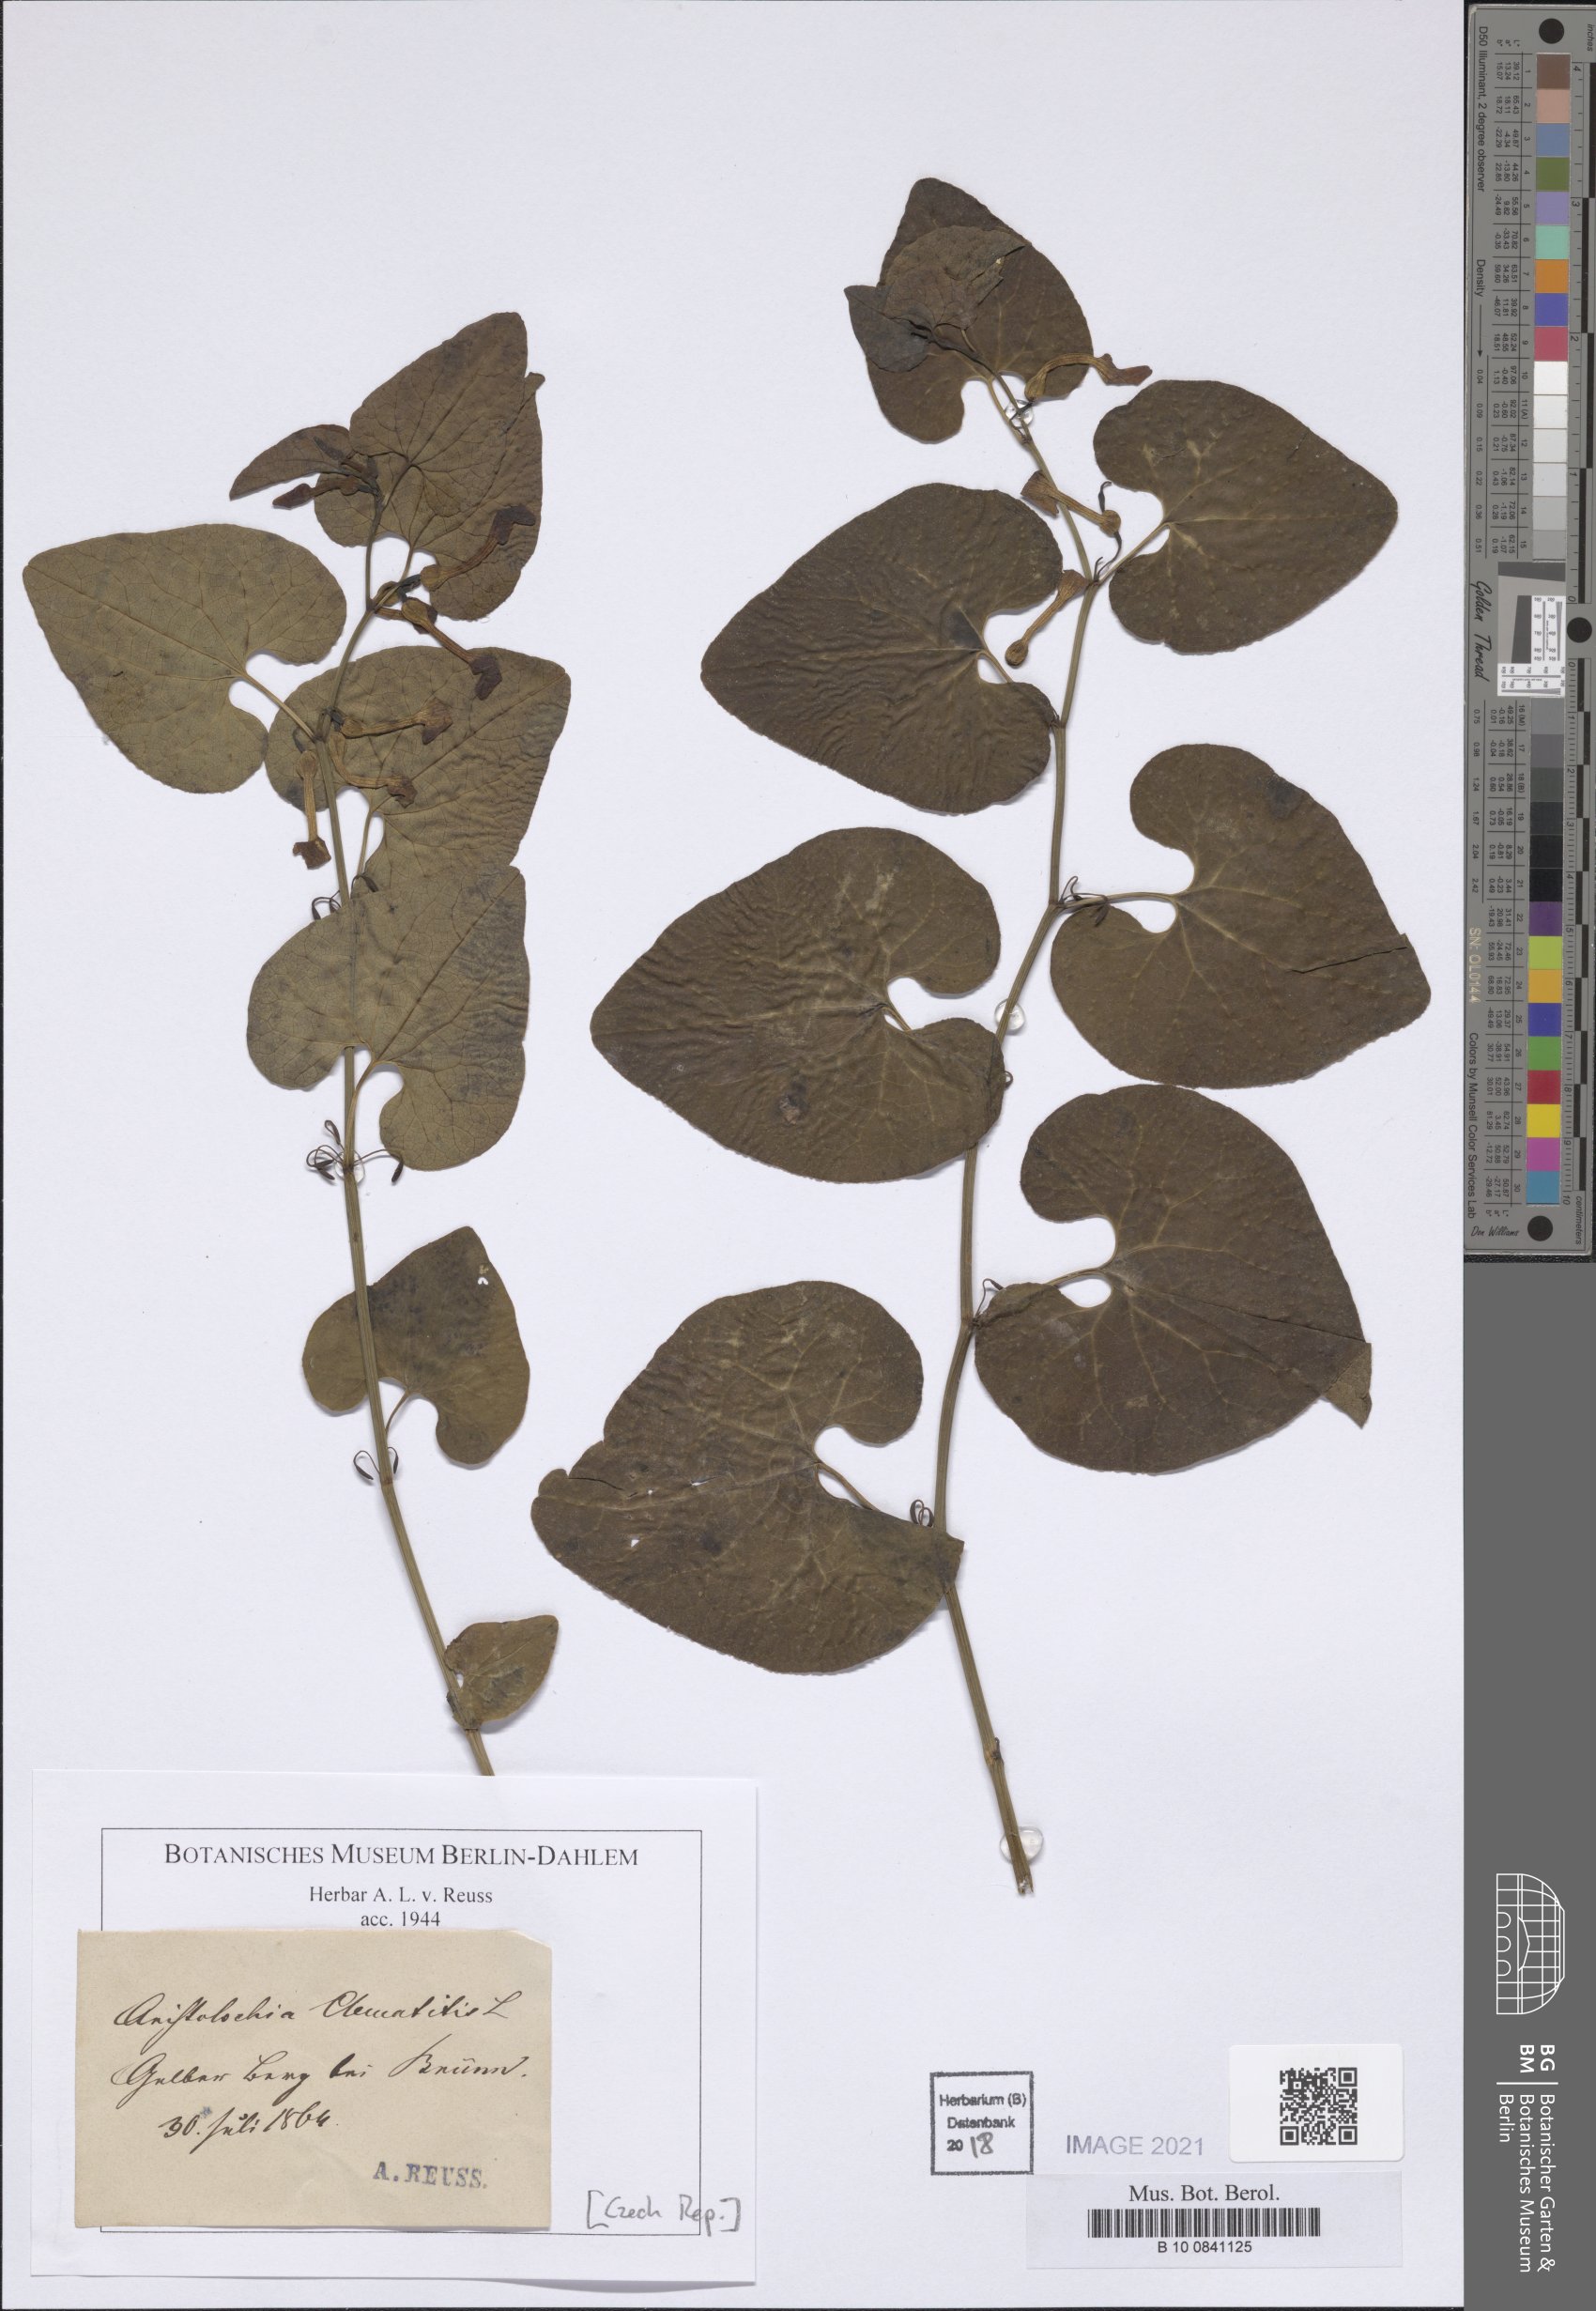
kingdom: Plantae
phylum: Tracheophyta
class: Magnoliopsida
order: Piperales
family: Aristolochiaceae
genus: Aristolochia
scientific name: Aristolochia clematitis
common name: Birthwort
